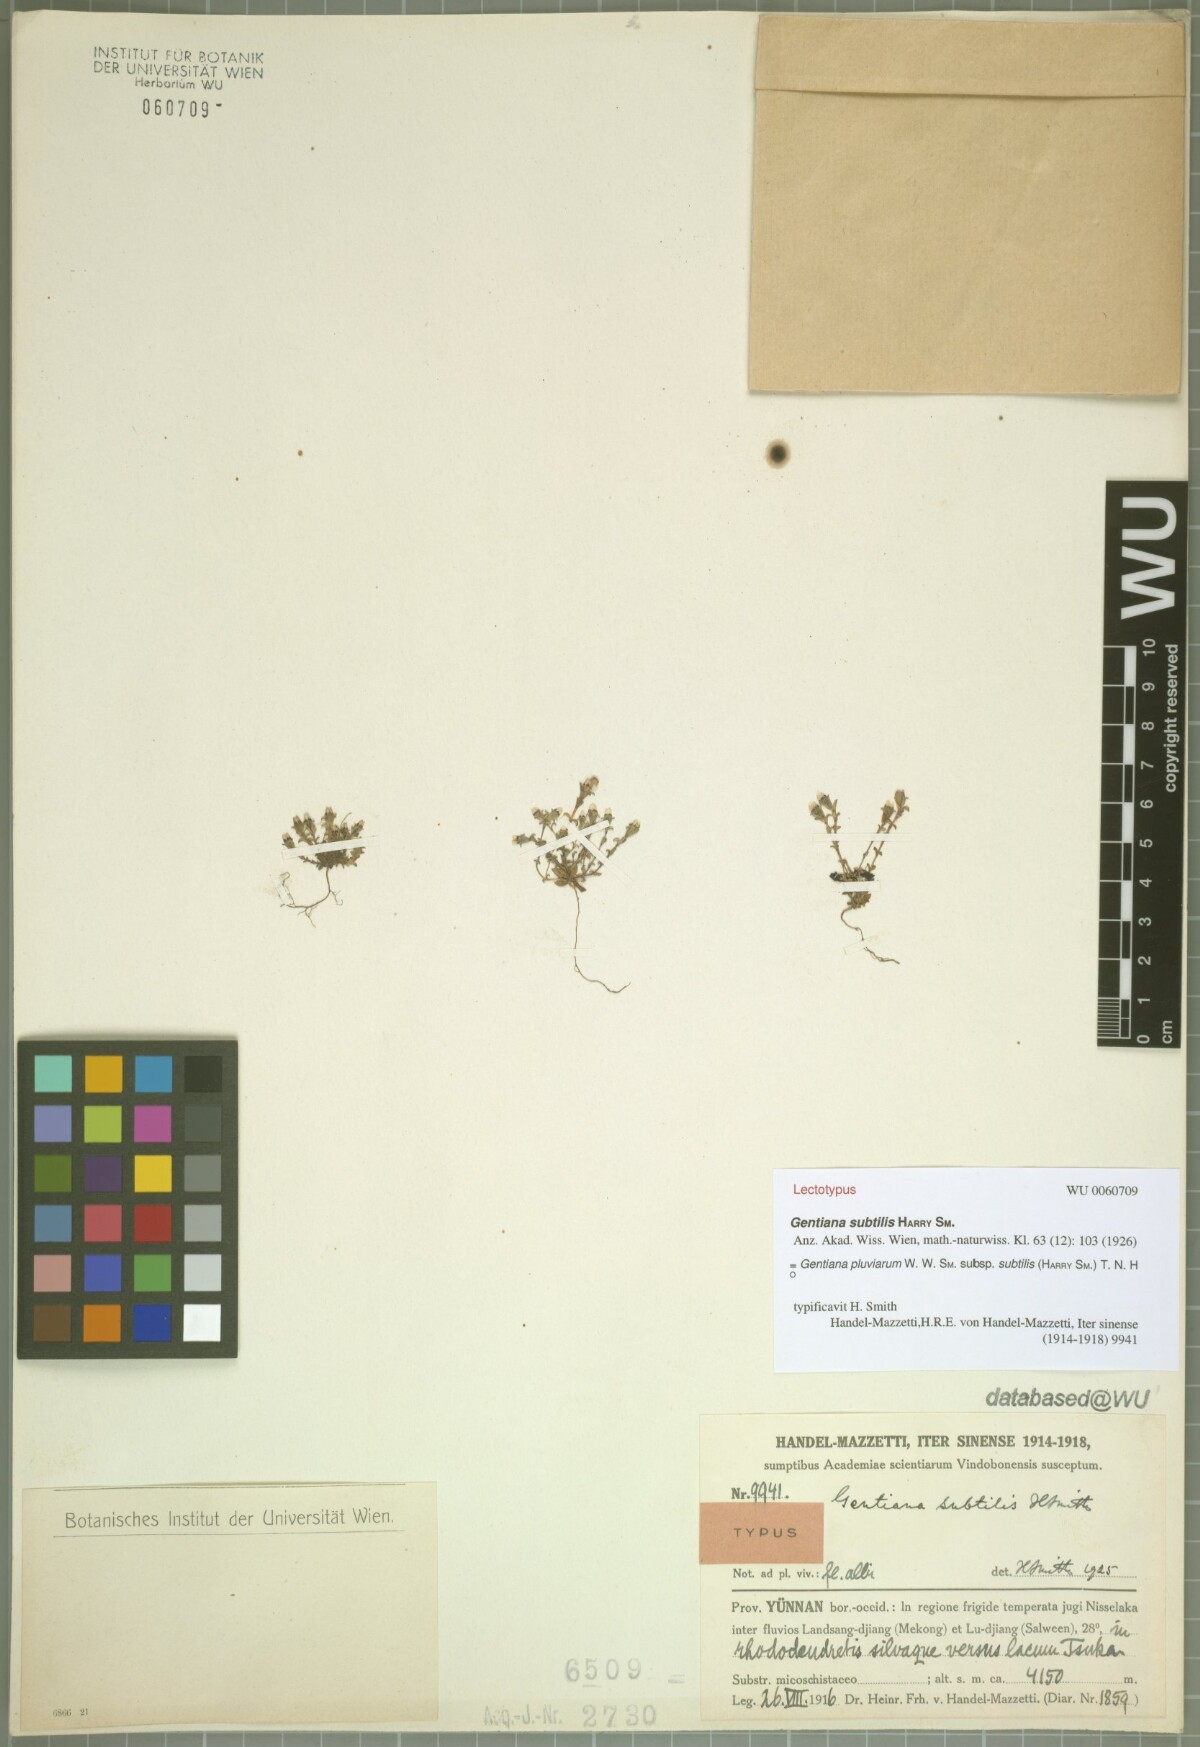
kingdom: Plantae
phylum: Tracheophyta
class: Magnoliopsida
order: Gentianales
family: Gentianaceae
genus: Gentiana
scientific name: Gentiana pulvinarum
